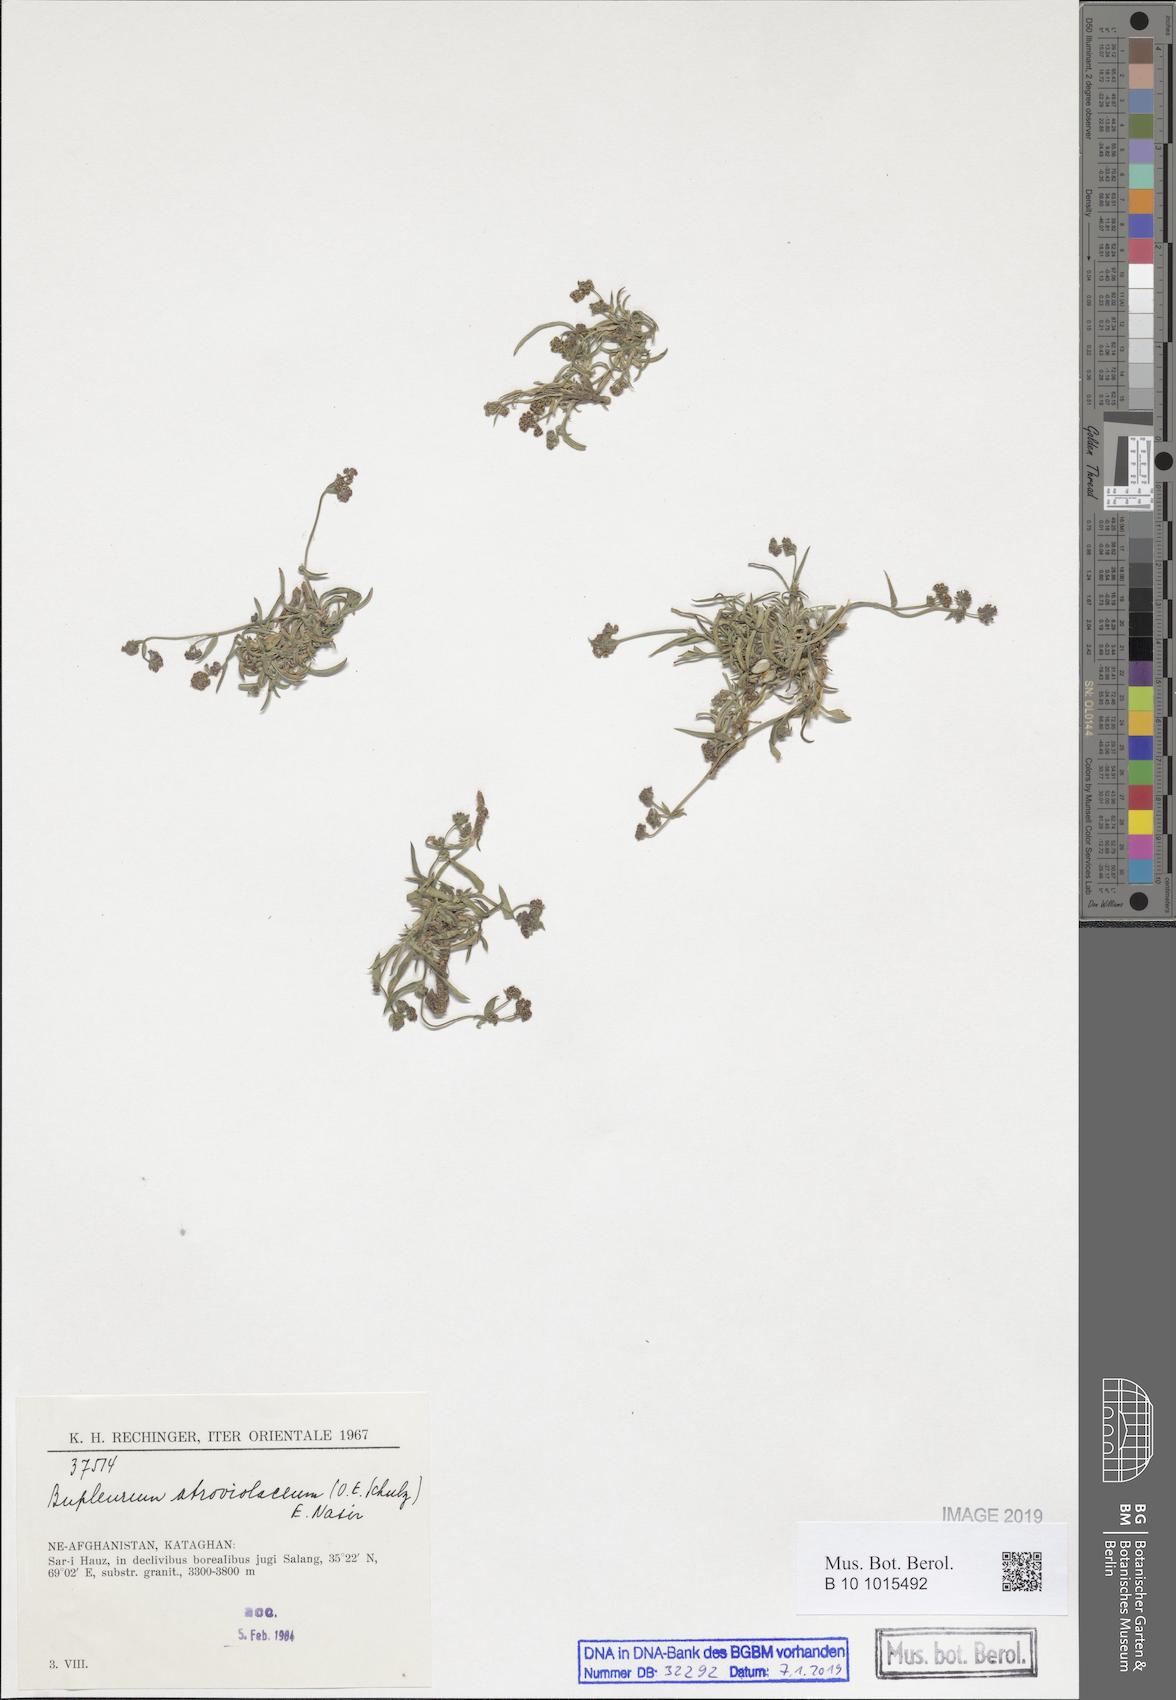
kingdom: Plantae
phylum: Tracheophyta
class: Magnoliopsida
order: Apiales
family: Apiaceae
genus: Bupleurum
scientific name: Bupleurum rupestre
